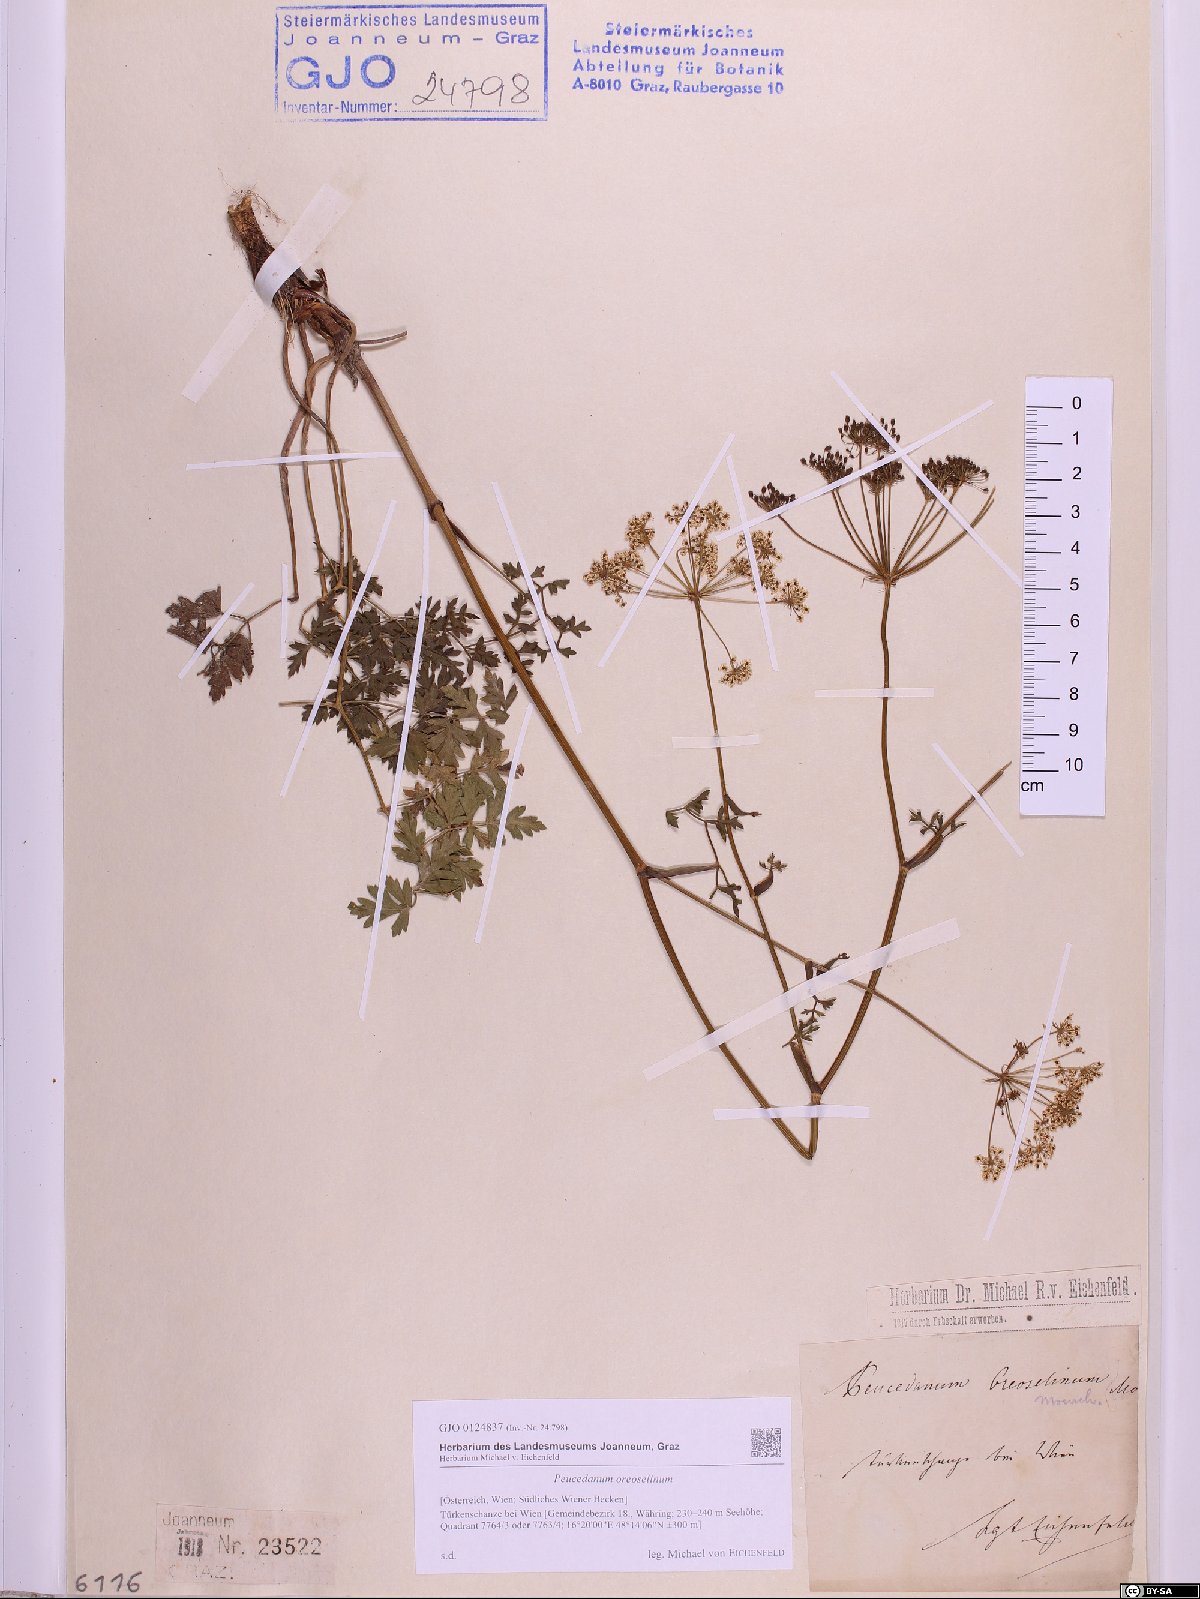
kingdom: Plantae
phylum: Tracheophyta
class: Magnoliopsida
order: Apiales
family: Apiaceae
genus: Oreoselinum
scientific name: Oreoselinum nigrum
